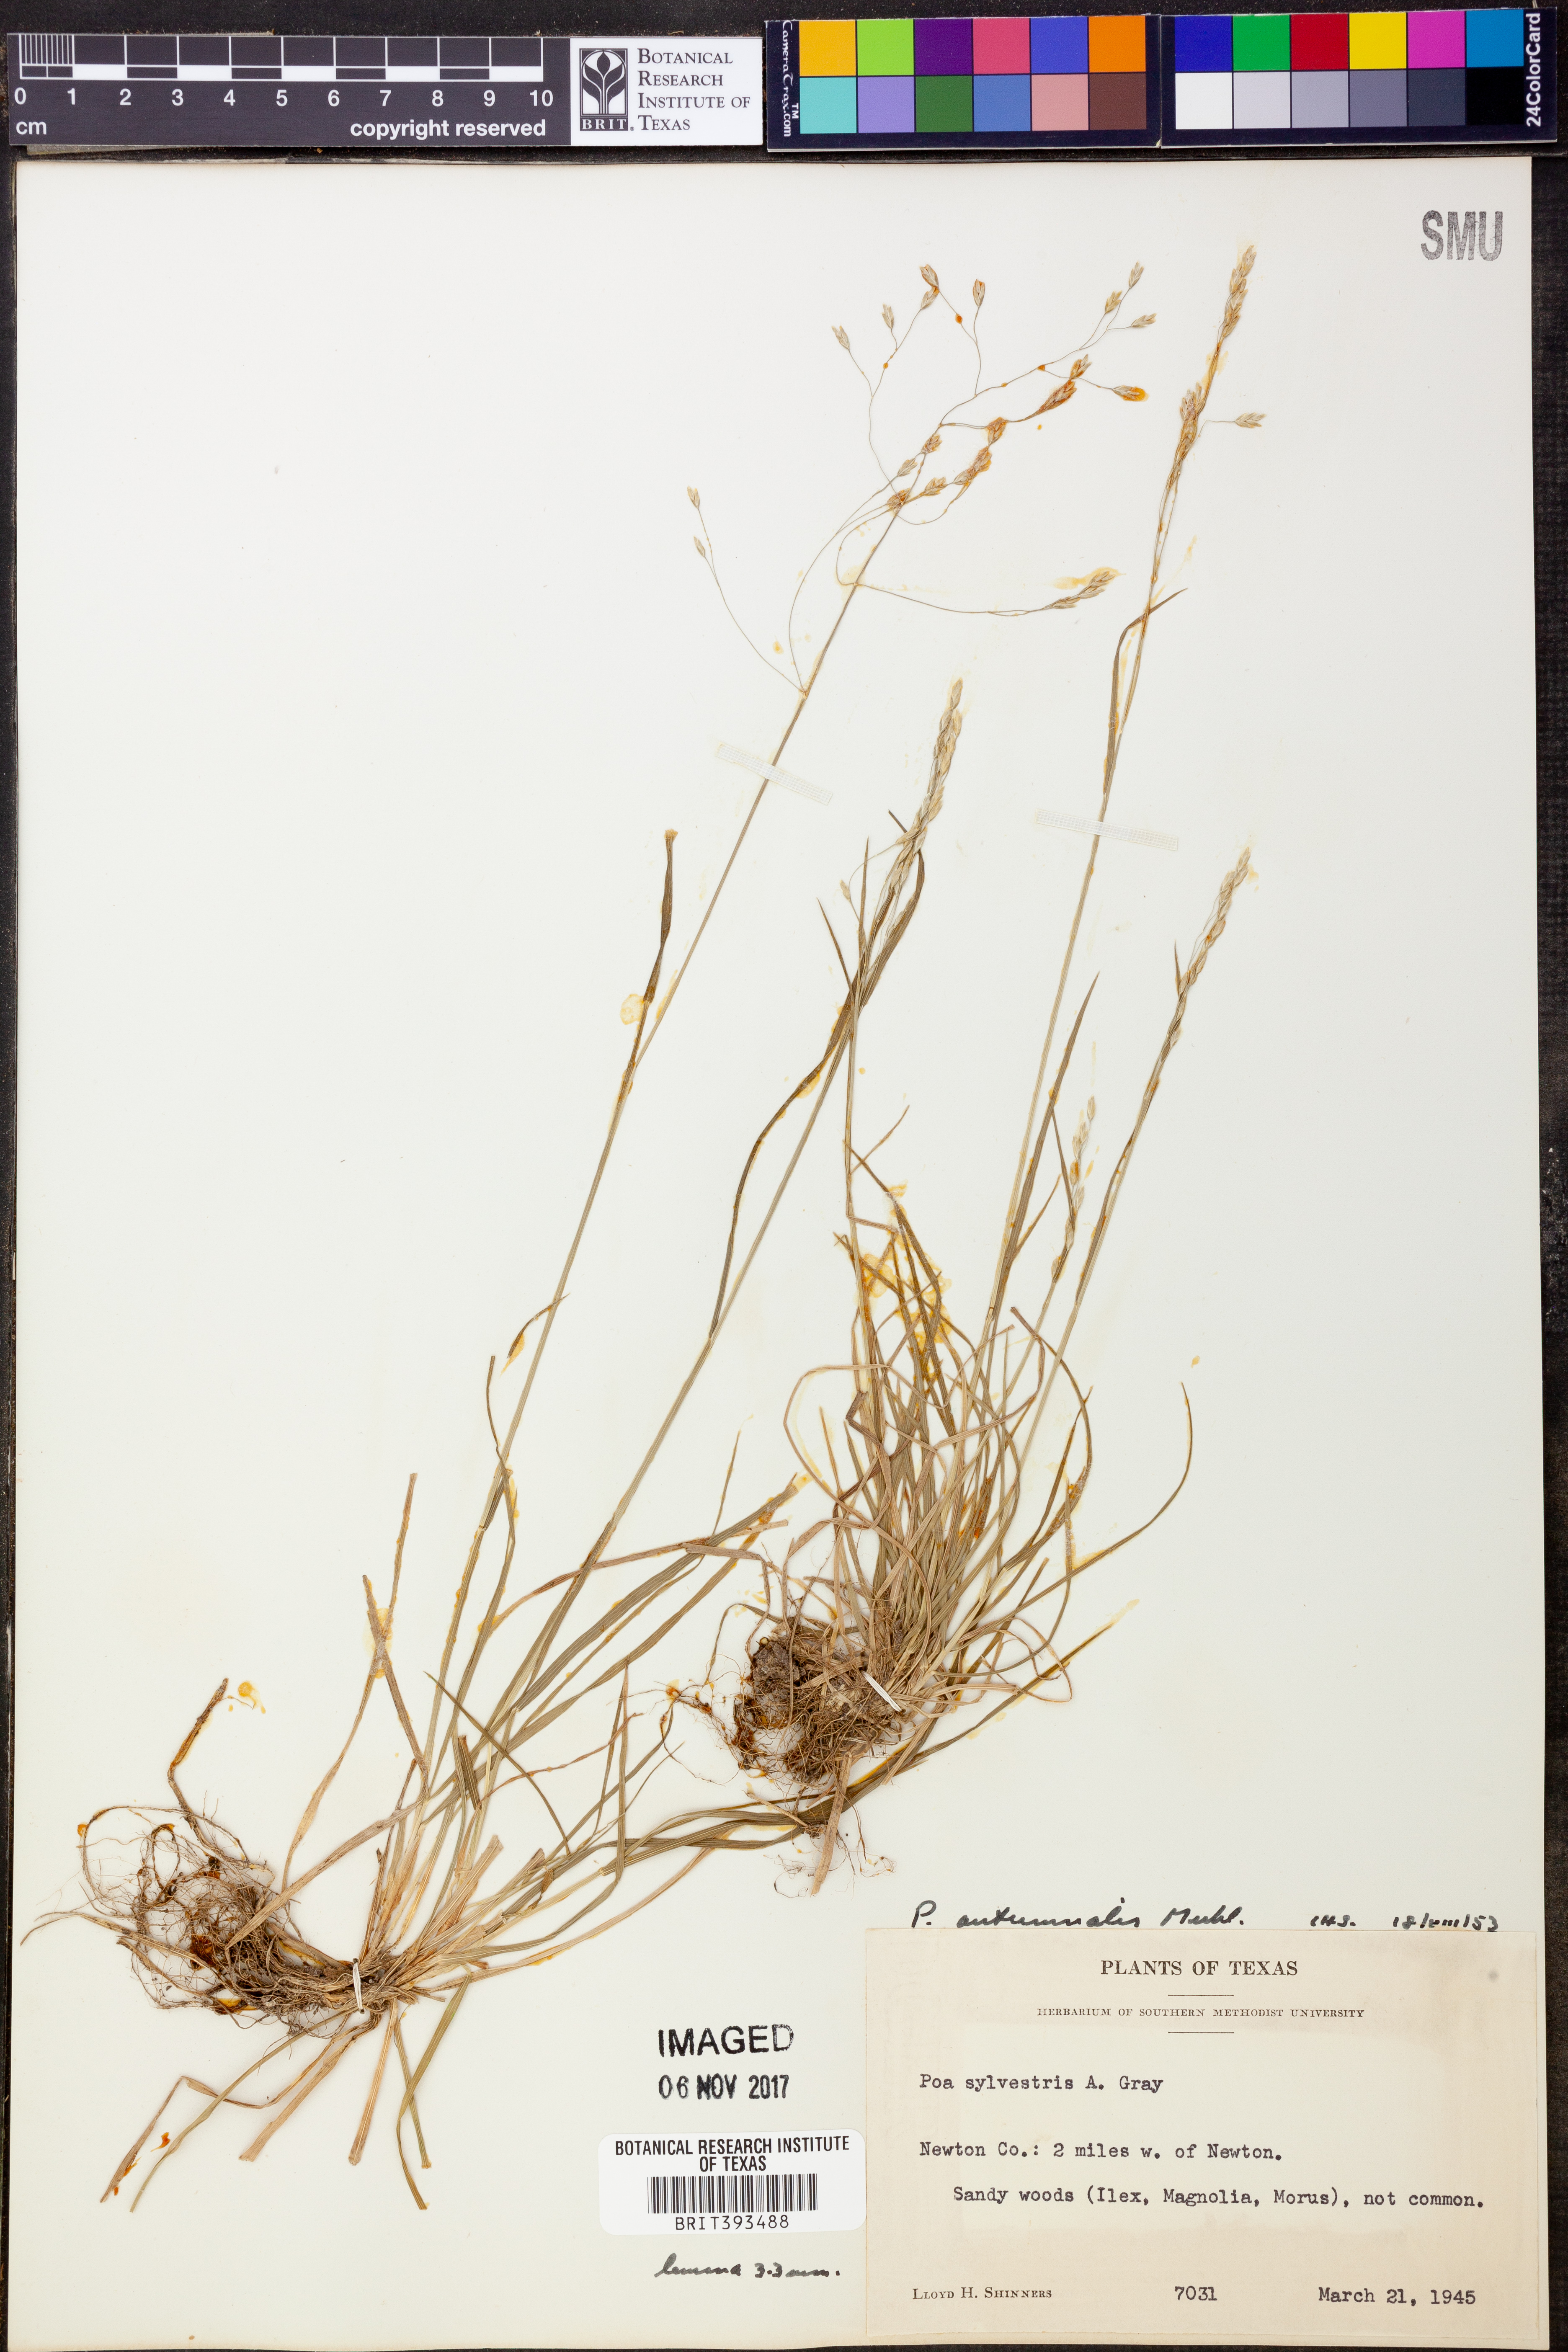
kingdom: Plantae
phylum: Tracheophyta
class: Liliopsida
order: Poales
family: Poaceae
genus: Poa
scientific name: Poa autumnalis
